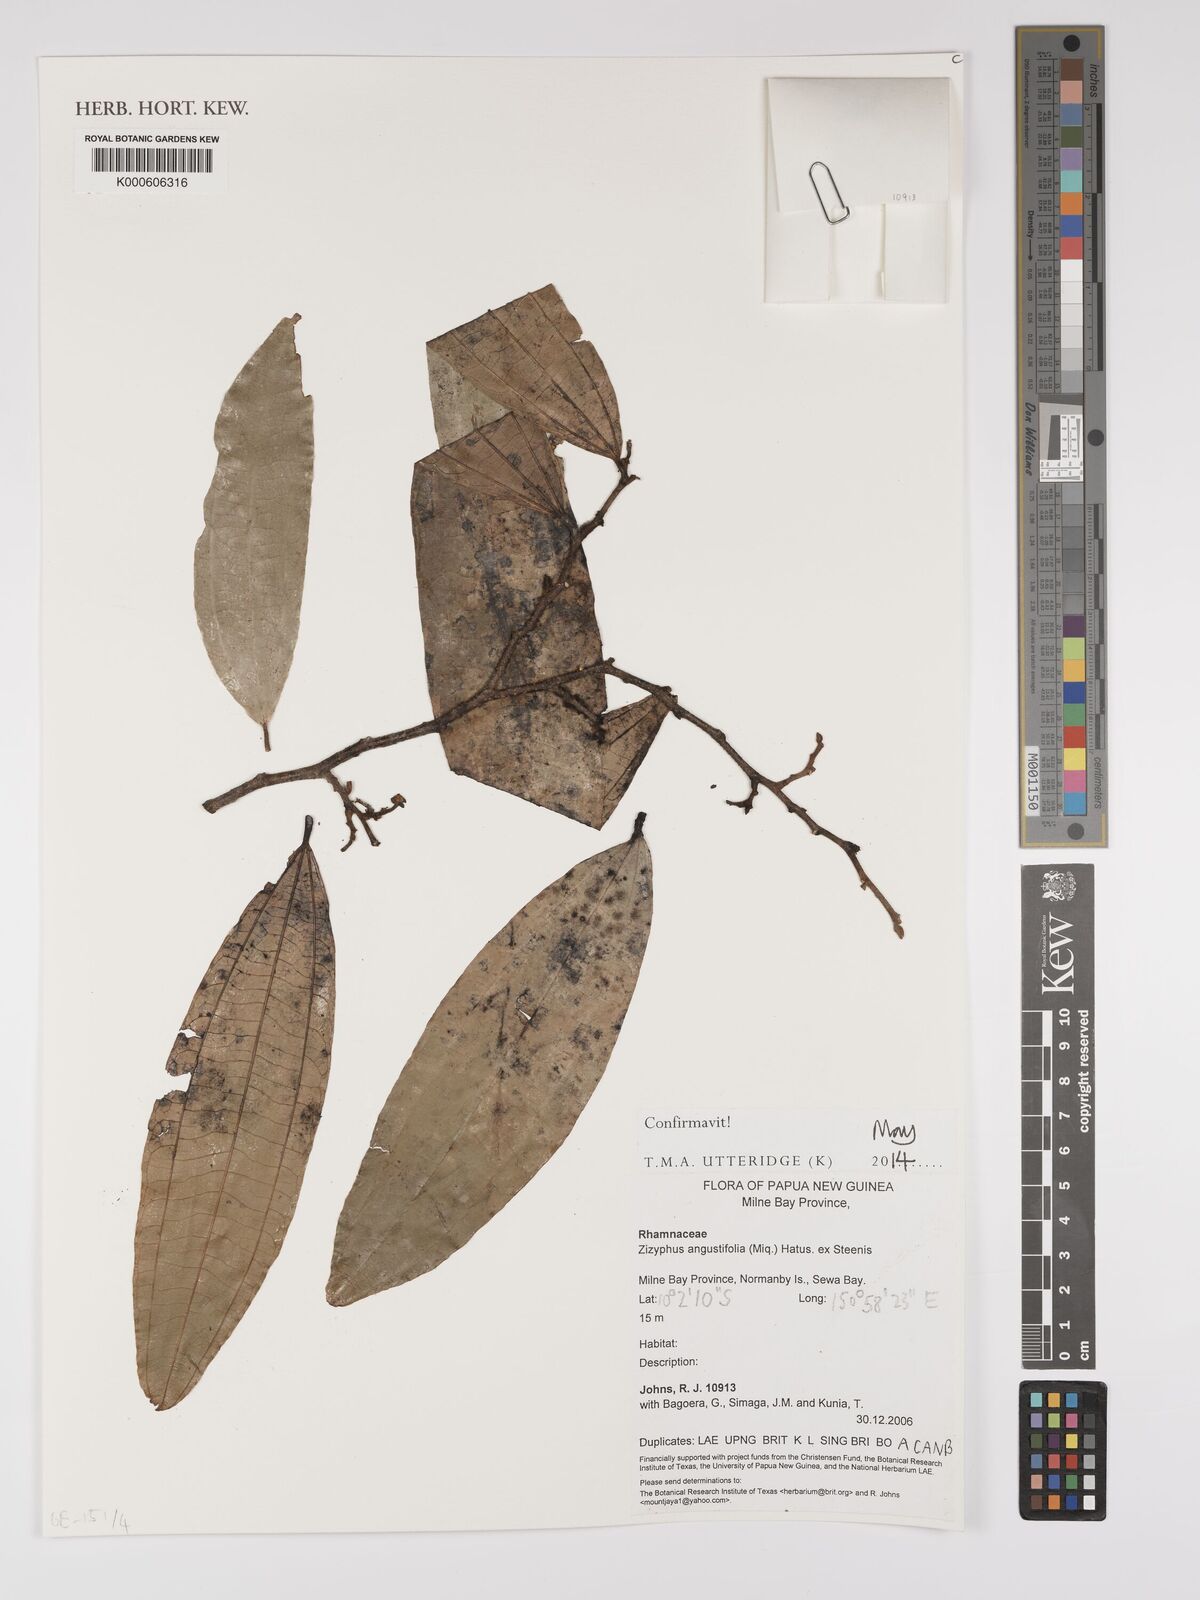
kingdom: Plantae
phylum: Tracheophyta
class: Magnoliopsida
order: Rosales
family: Rhamnaceae
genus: Ziziphus
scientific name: Ziziphus angustifolia
